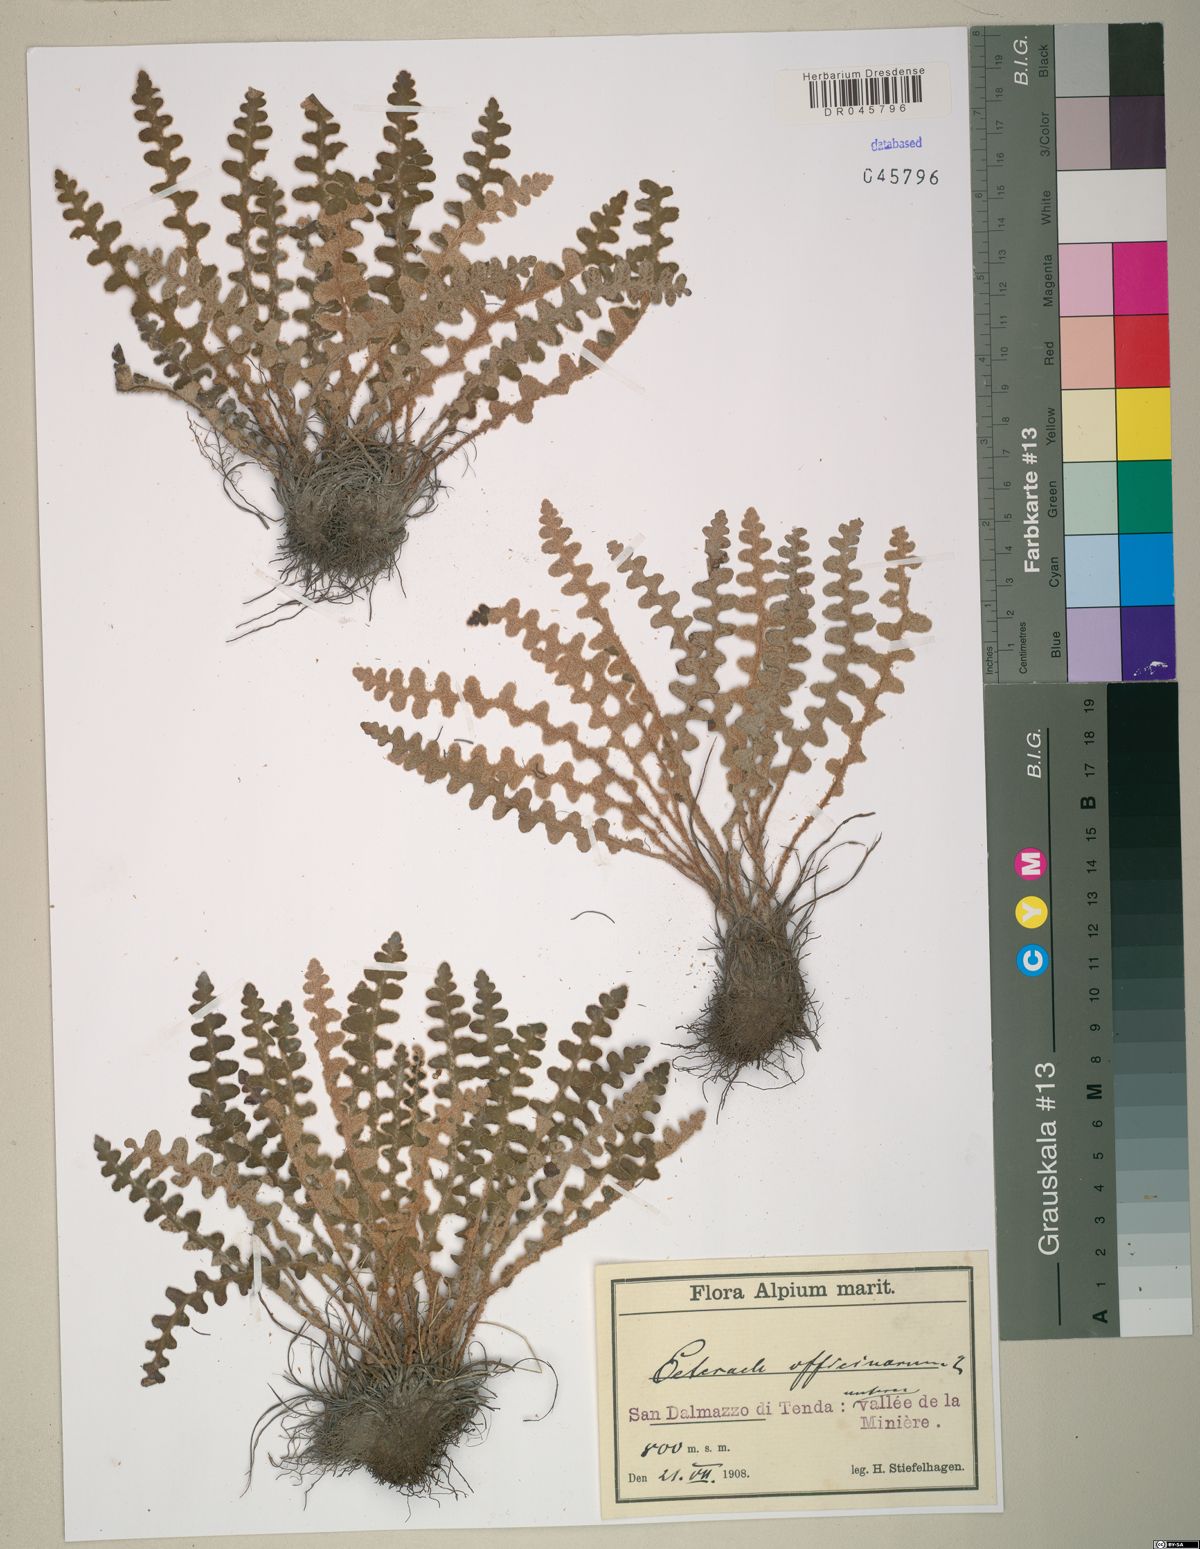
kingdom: Plantae
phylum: Tracheophyta
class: Polypodiopsida
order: Polypodiales
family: Aspleniaceae
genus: Asplenium
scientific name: Asplenium ceterach
